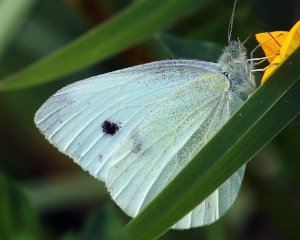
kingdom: Animalia
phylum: Arthropoda
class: Insecta
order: Lepidoptera
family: Pieridae
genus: Pieris
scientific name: Pieris rapae
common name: Cabbage White
